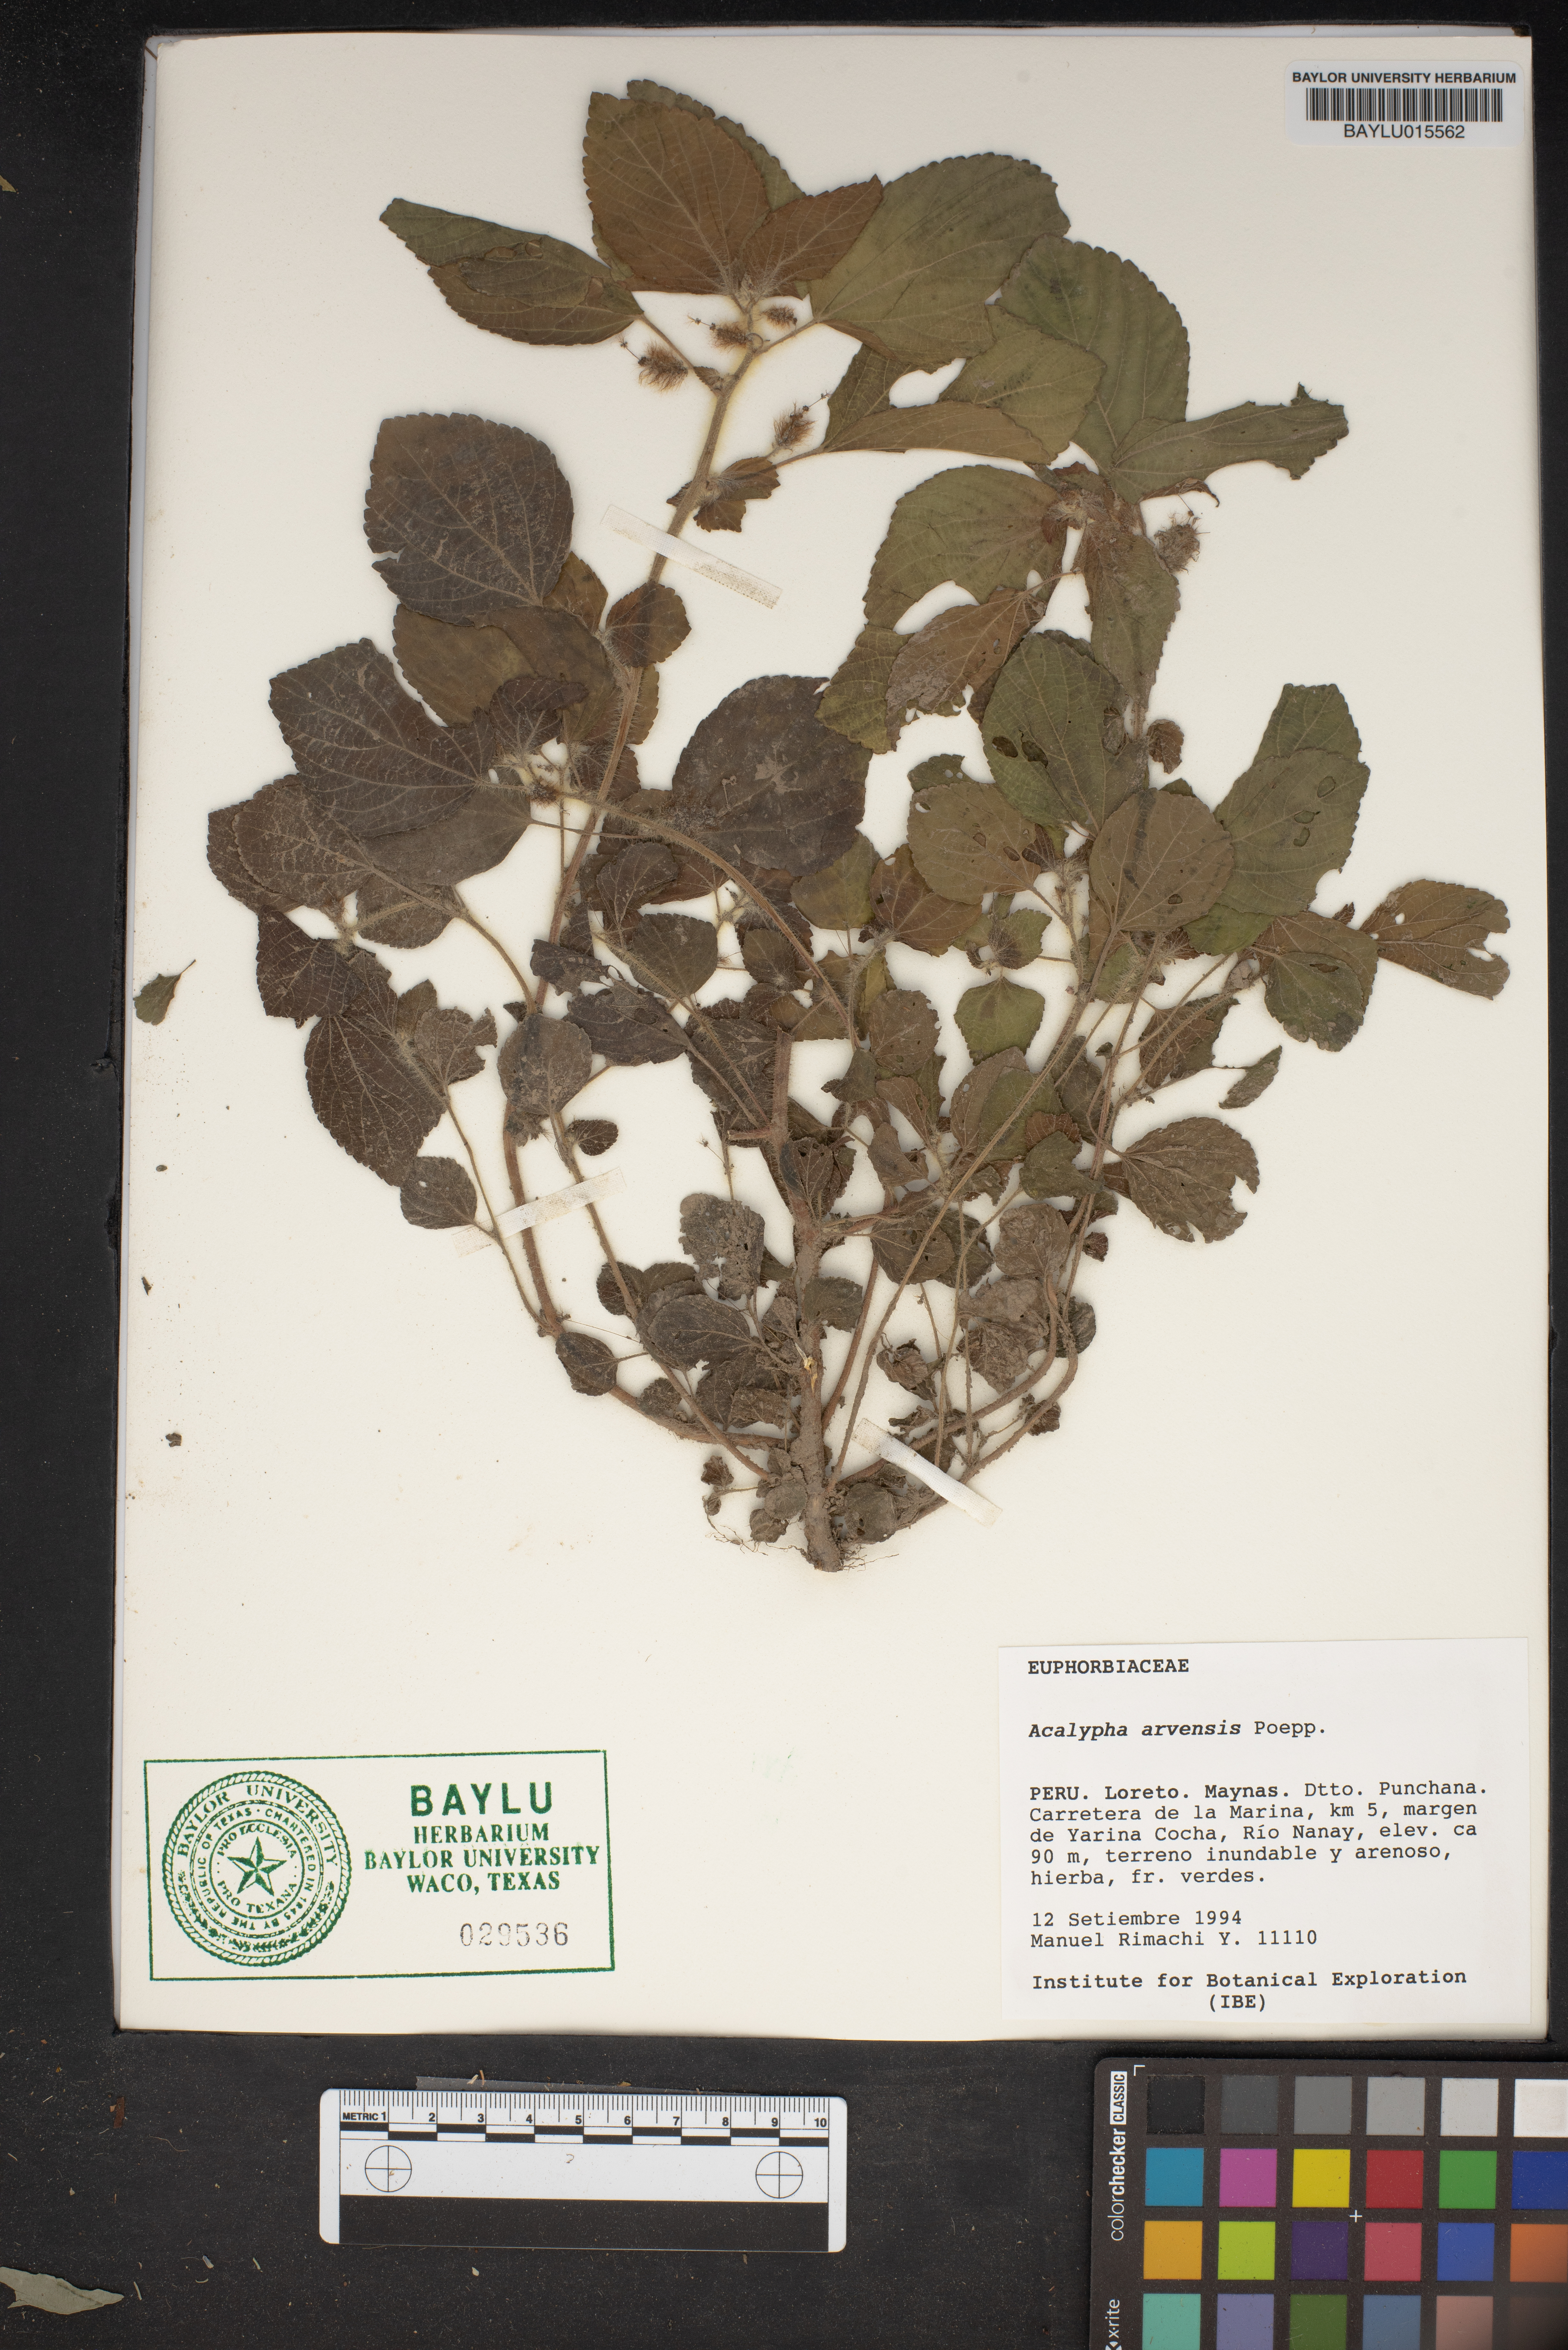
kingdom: Plantae
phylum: Tracheophyta
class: Magnoliopsida
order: Malpighiales
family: Euphorbiaceae
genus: Acalypha
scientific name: Acalypha arvensis
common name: Field copperleaf
